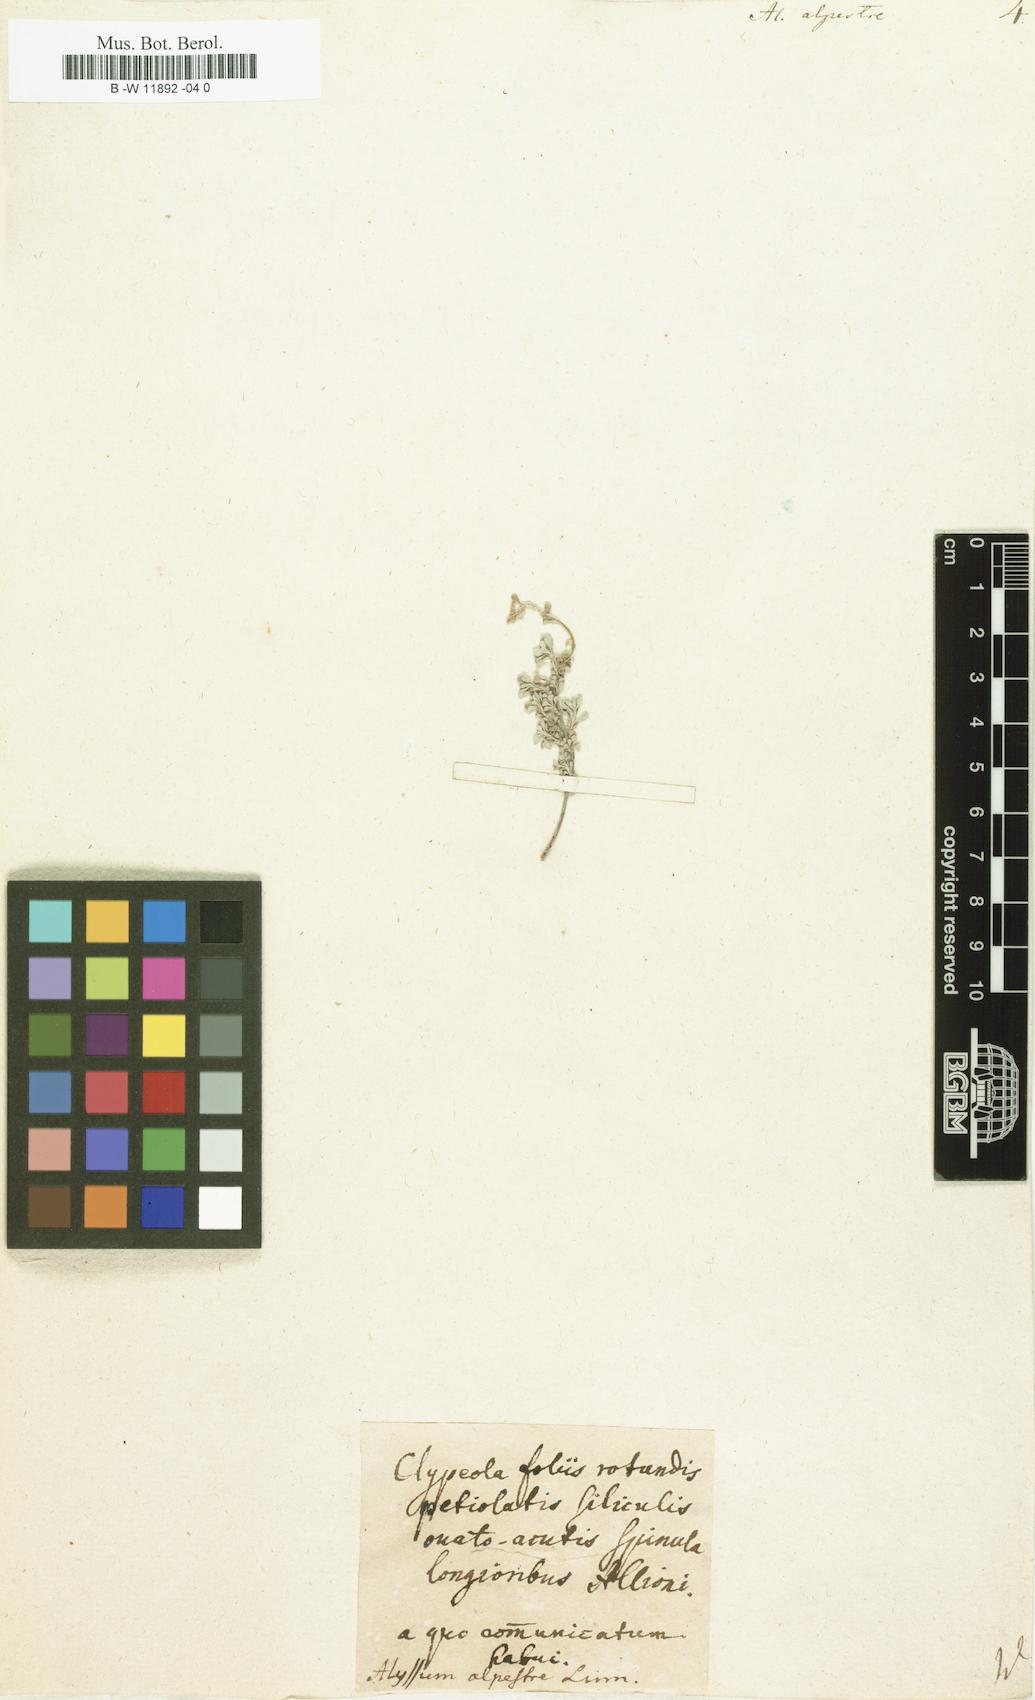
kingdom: Plantae
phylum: Tracheophyta
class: Magnoliopsida
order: Brassicales
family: Brassicaceae
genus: Odontarrhena
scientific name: Odontarrhena alpestris
